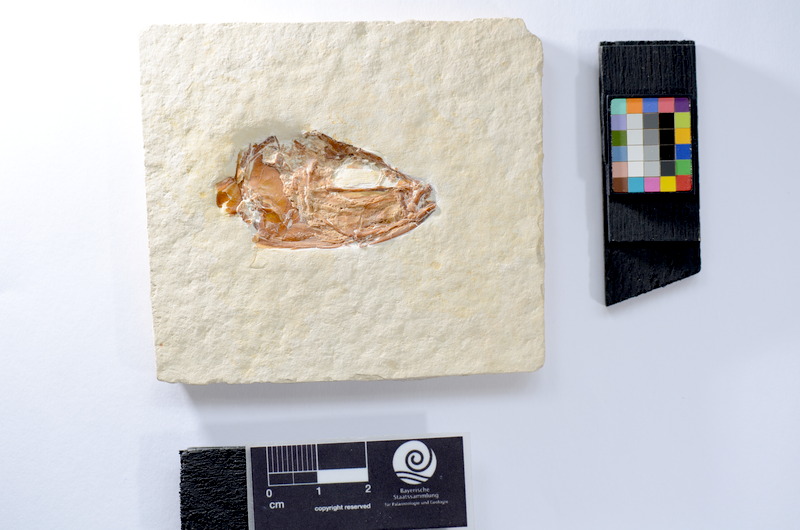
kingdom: Animalia
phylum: Chordata
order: Elopiformes
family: Anaethalionidae
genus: Anaethalion
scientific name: Anaethalion knorri
